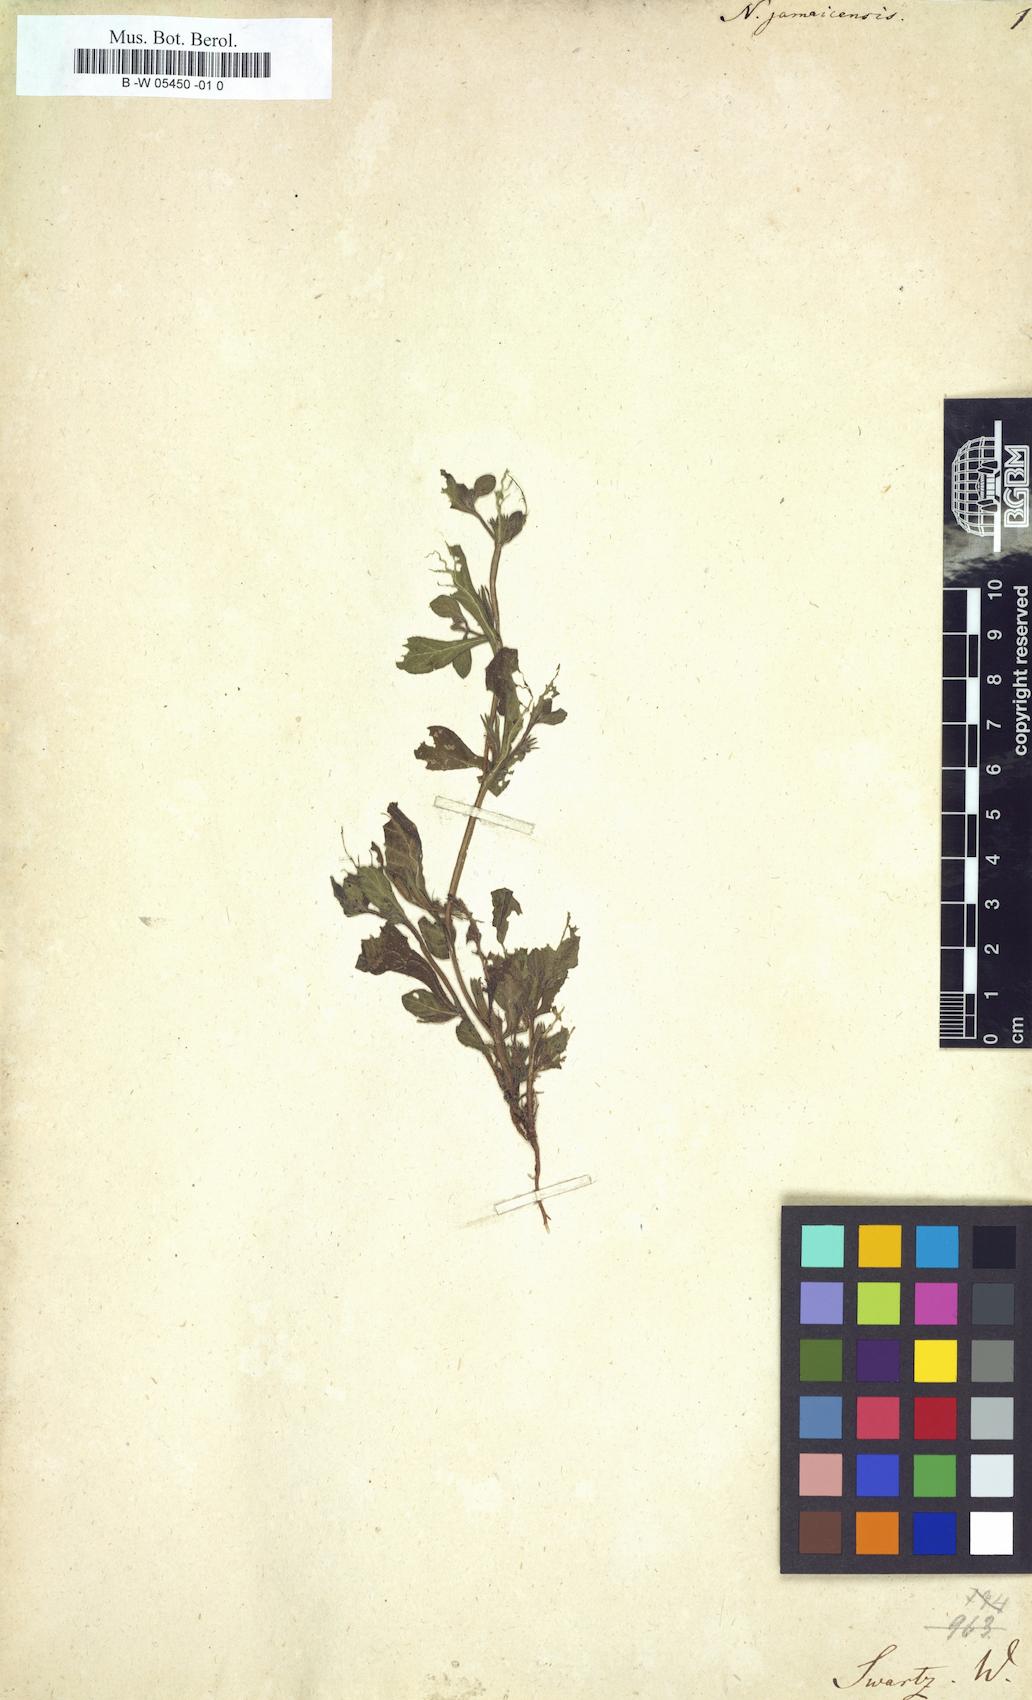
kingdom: Plantae
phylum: Tracheophyta
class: Magnoliopsida
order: Boraginales
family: Namaceae
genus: Nama
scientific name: Nama jamaicensis
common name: Jamaicanweed
